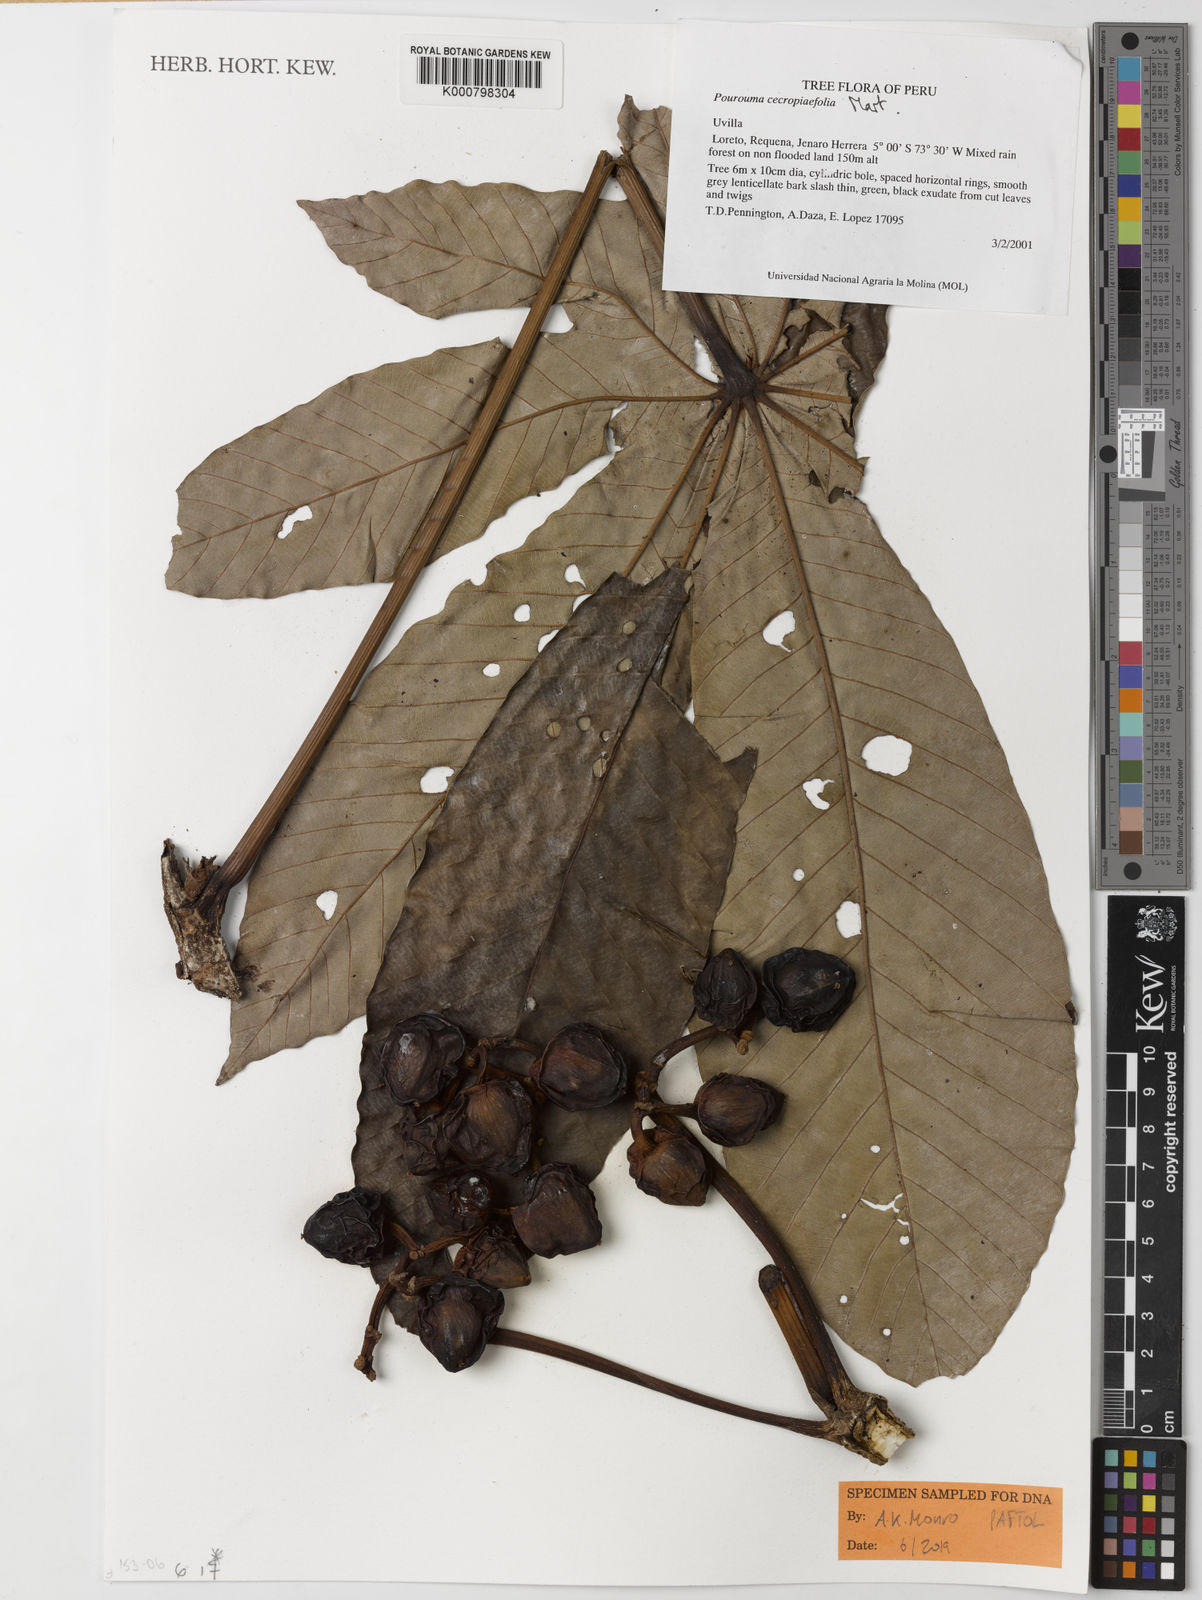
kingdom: Plantae
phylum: Tracheophyta
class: Magnoliopsida
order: Rosales
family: Urticaceae
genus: Pourouma
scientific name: Pourouma
